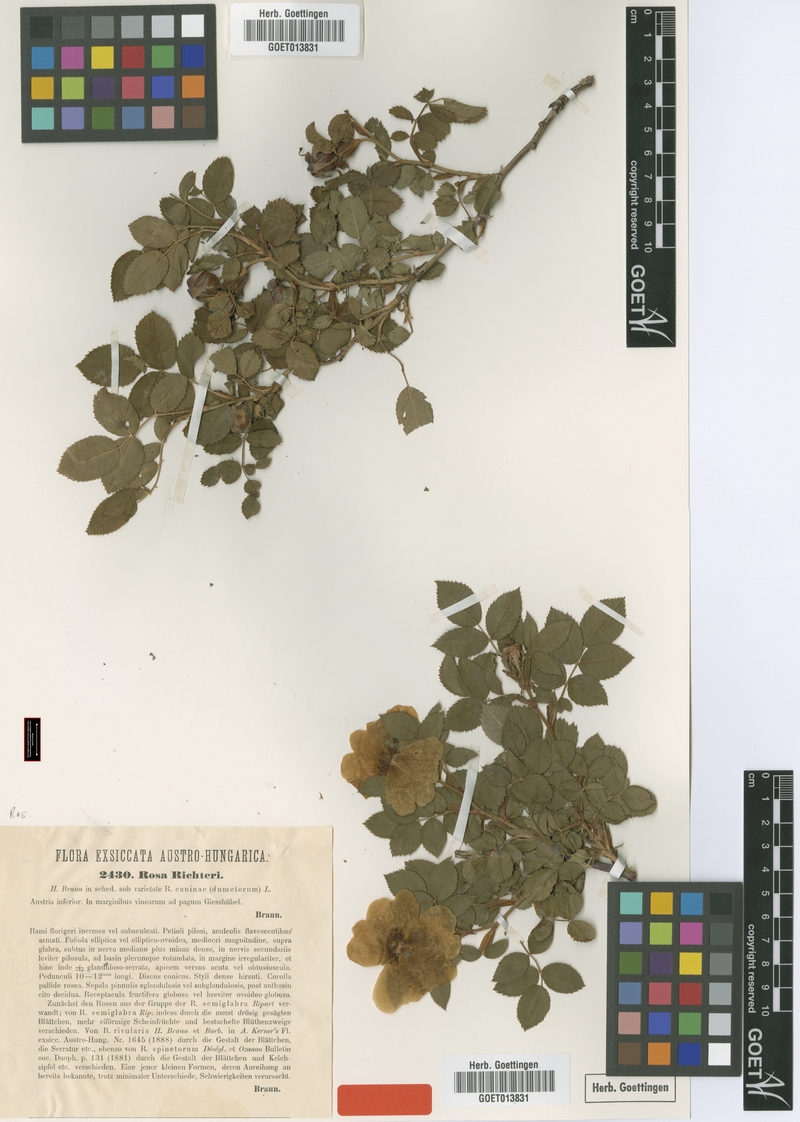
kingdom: Plantae
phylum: Tracheophyta
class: Magnoliopsida
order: Rosales
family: Rosaceae
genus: Rosa
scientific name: Rosa corymbifera
